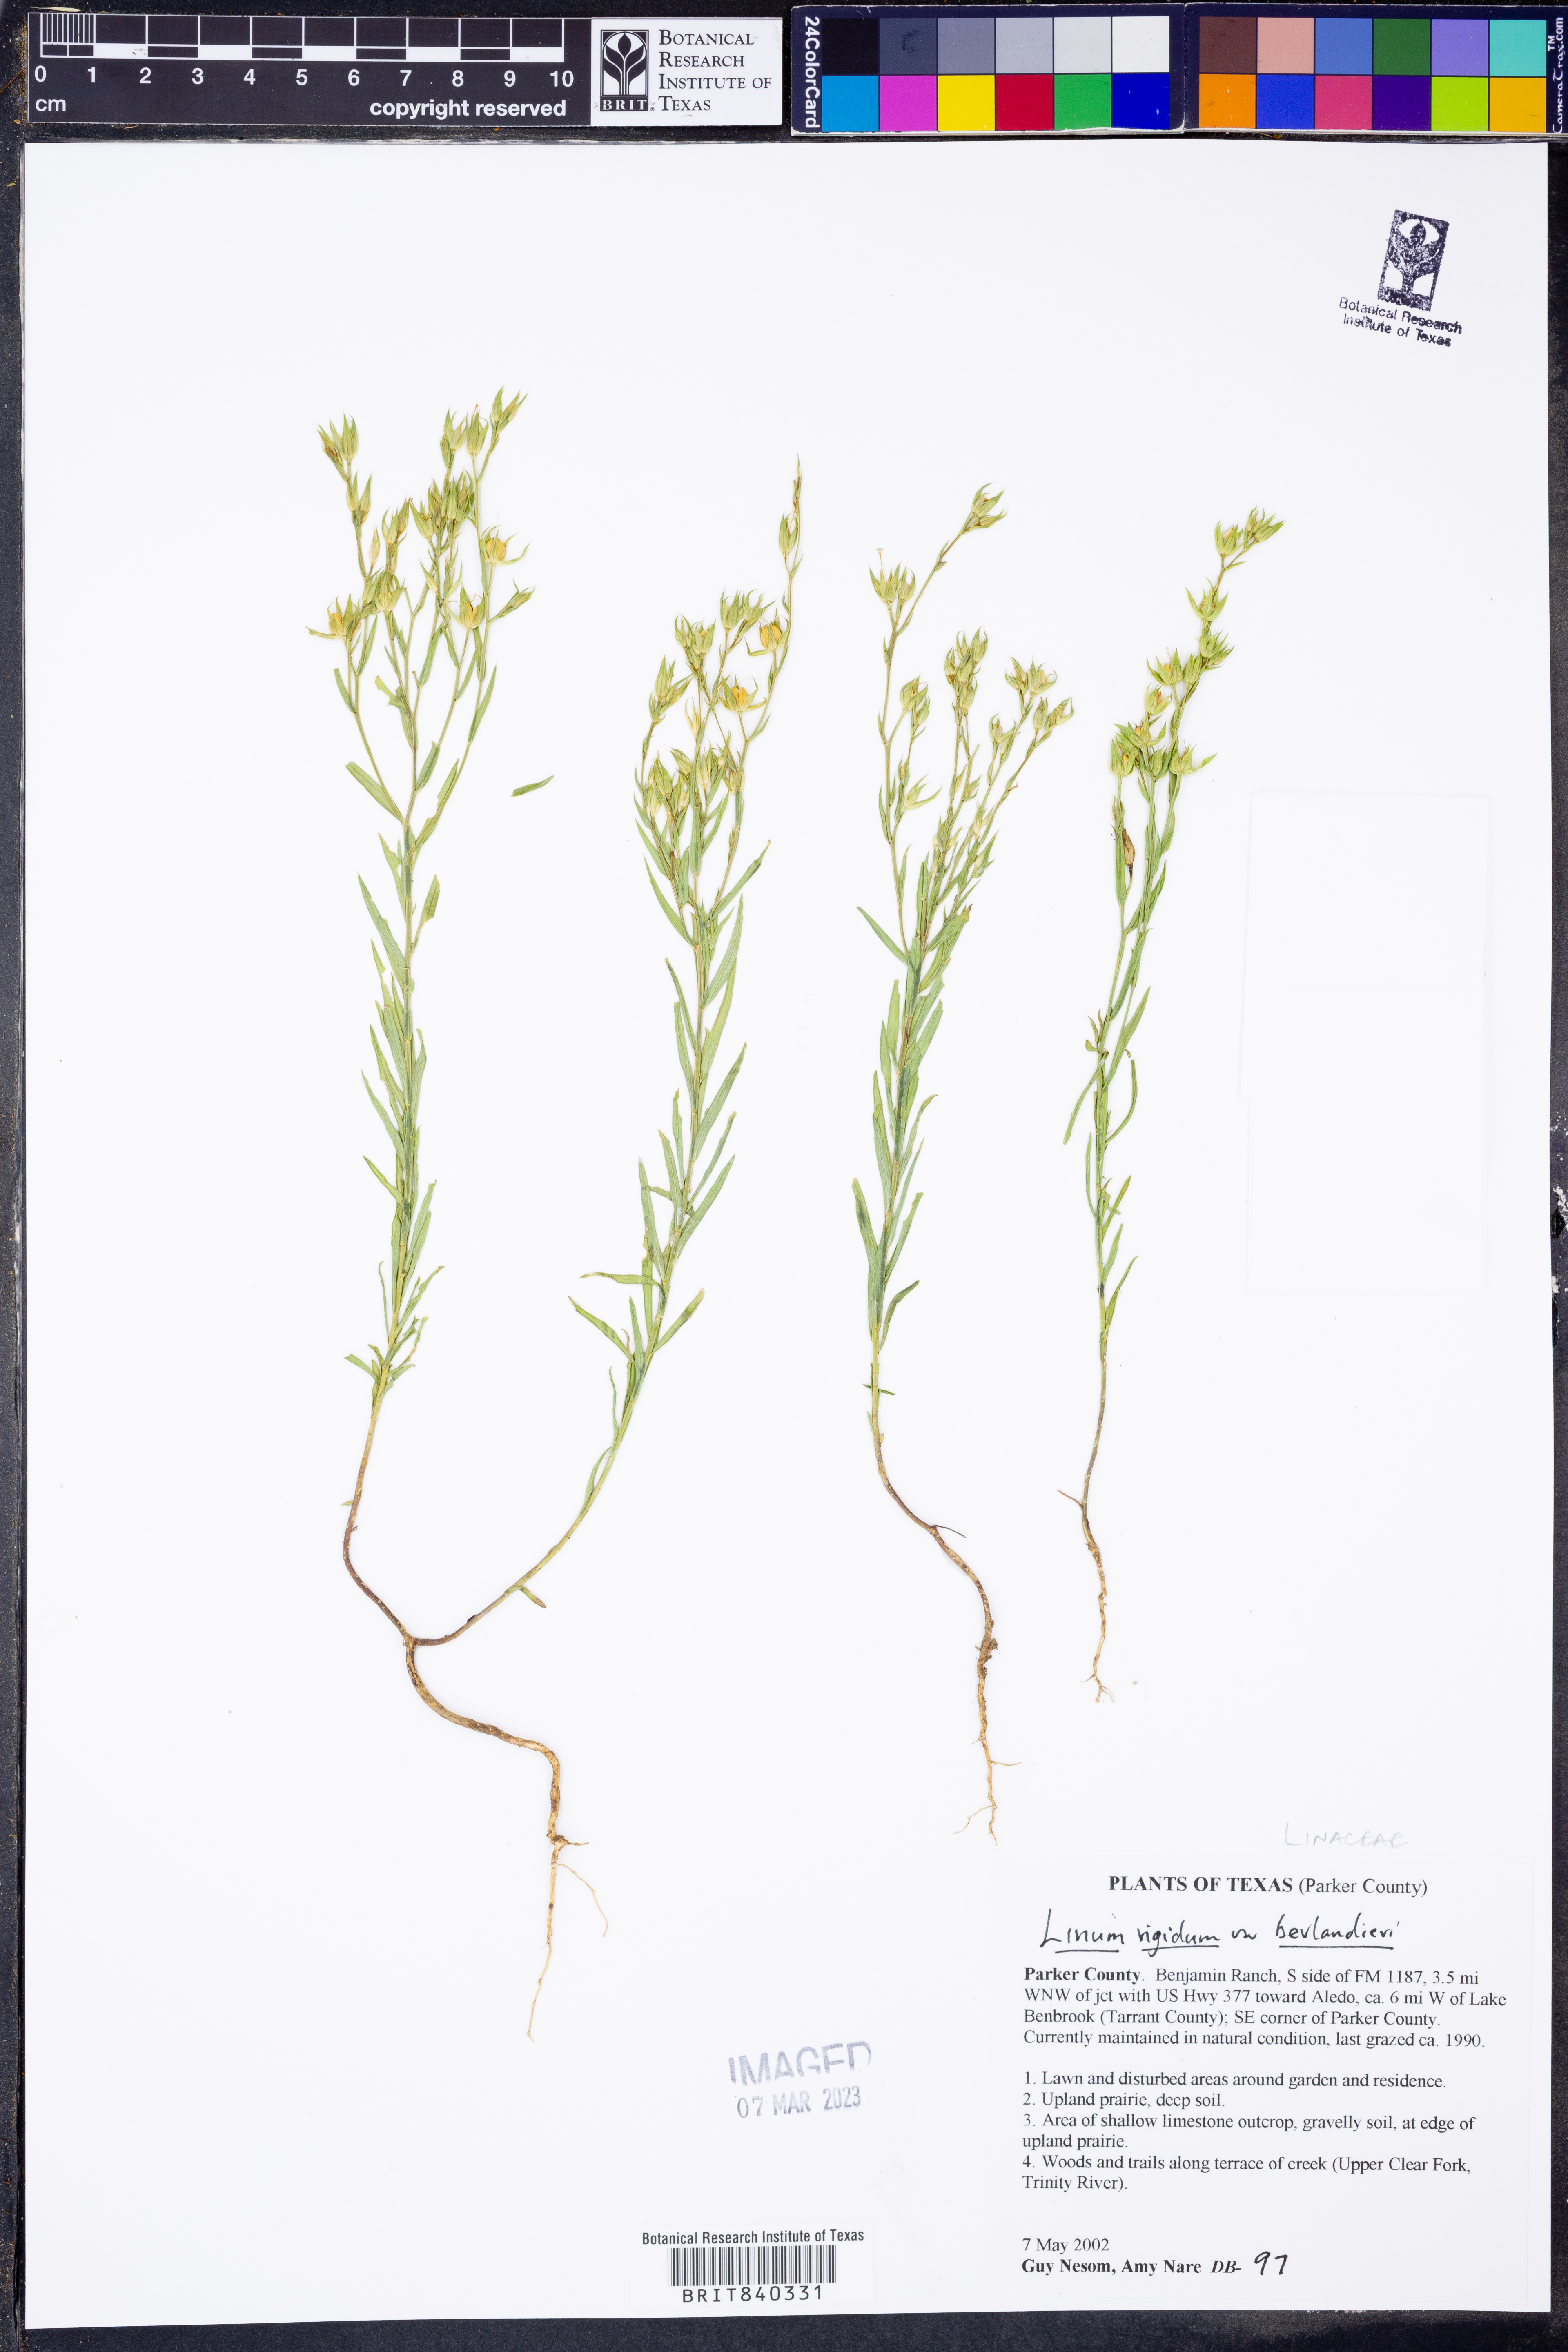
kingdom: Plantae
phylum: Tracheophyta
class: Magnoliopsida
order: Malpighiales
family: Linaceae
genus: Linum
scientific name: Linum berlandieri
